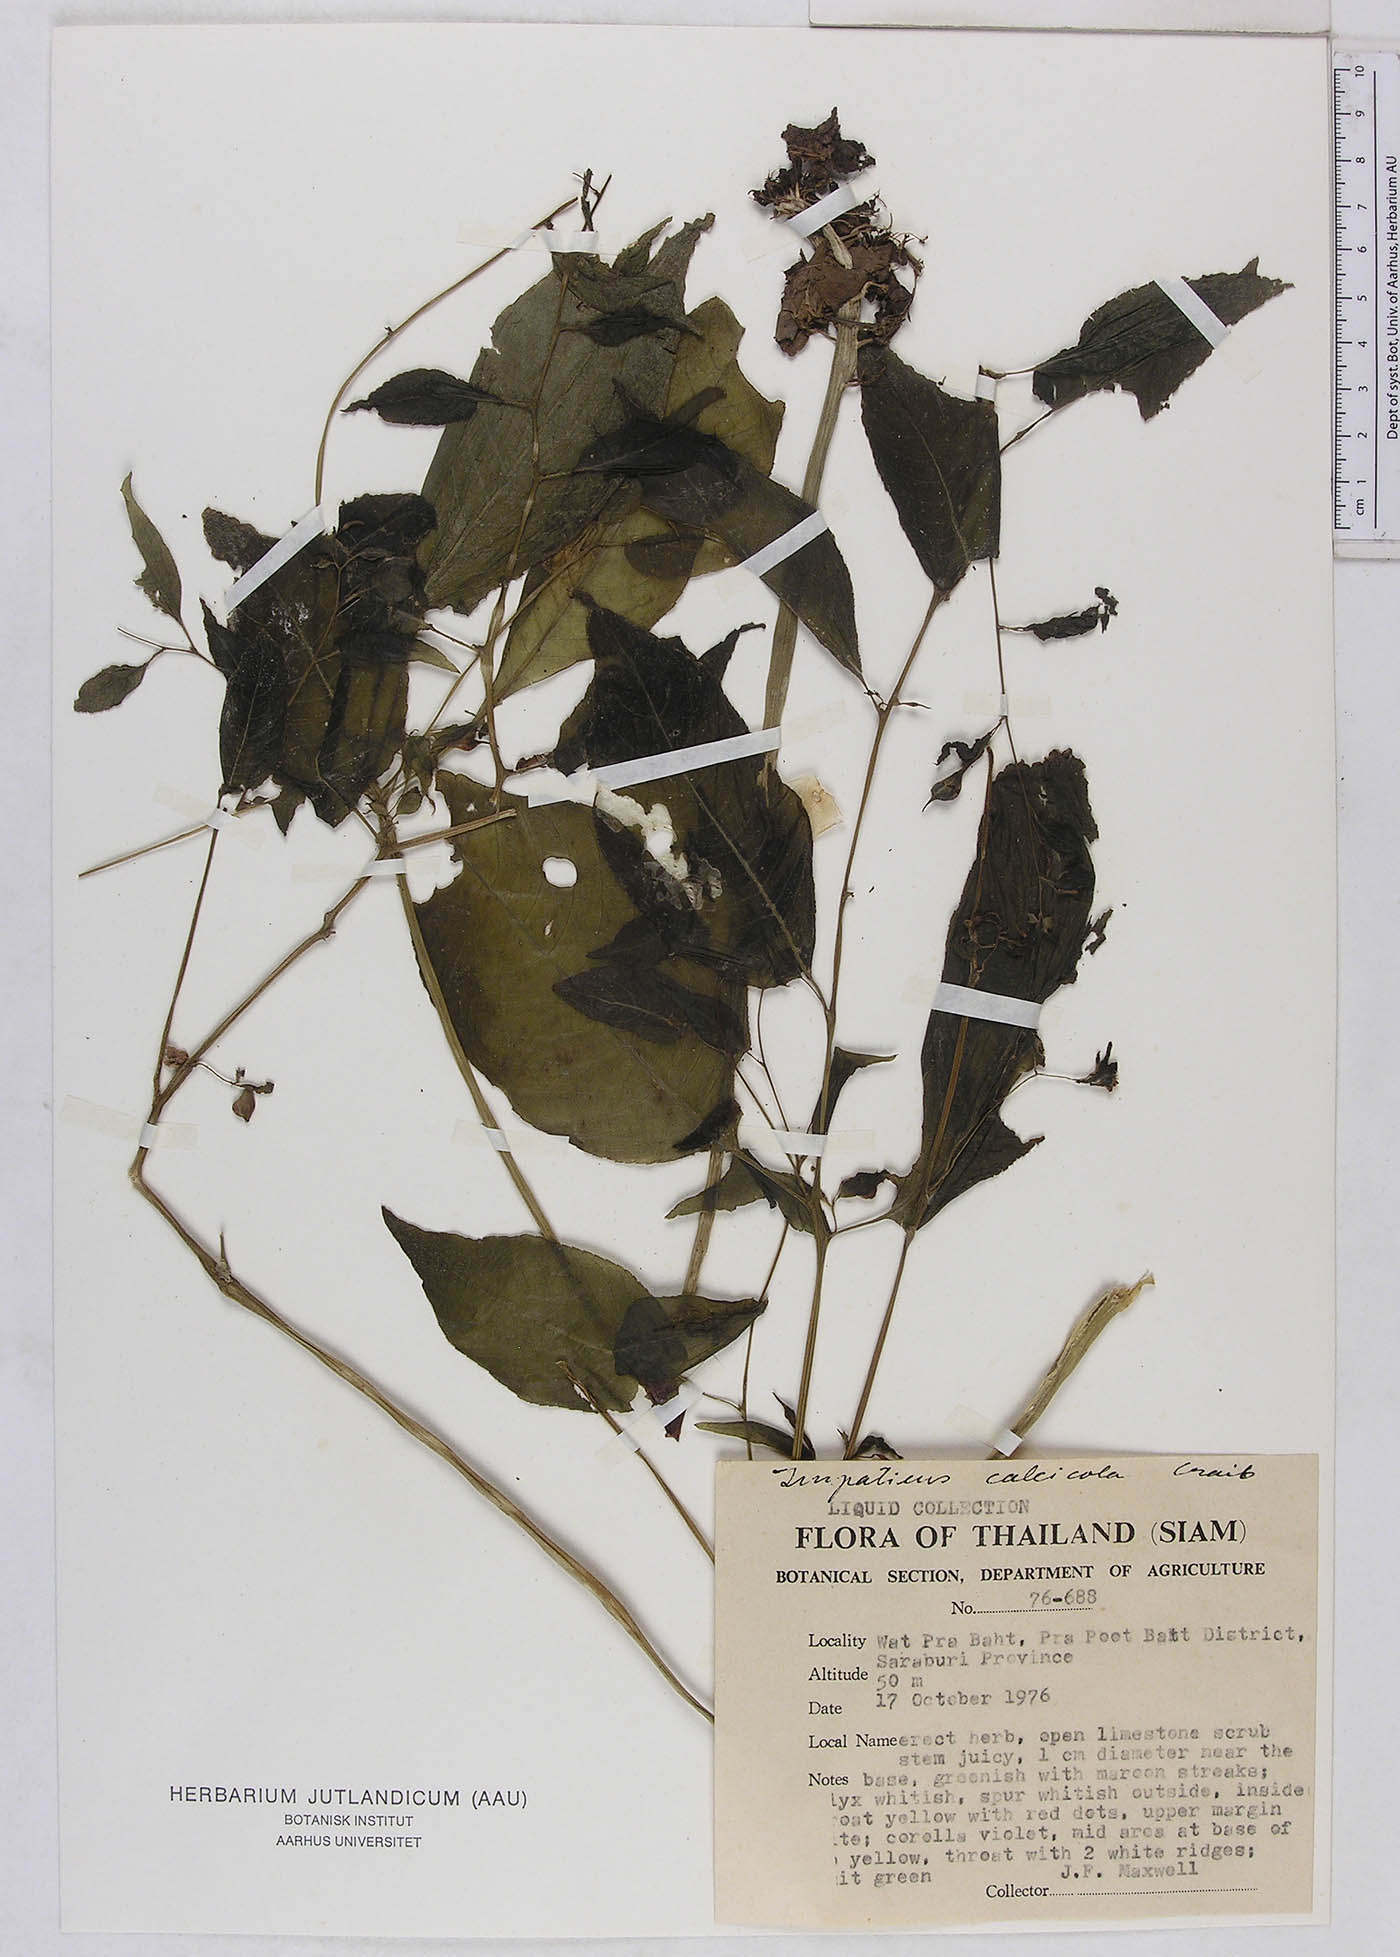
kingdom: Plantae
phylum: Tracheophyta
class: Magnoliopsida
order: Ericales
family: Balsaminaceae
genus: Impatiens
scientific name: Impatiens charanii
